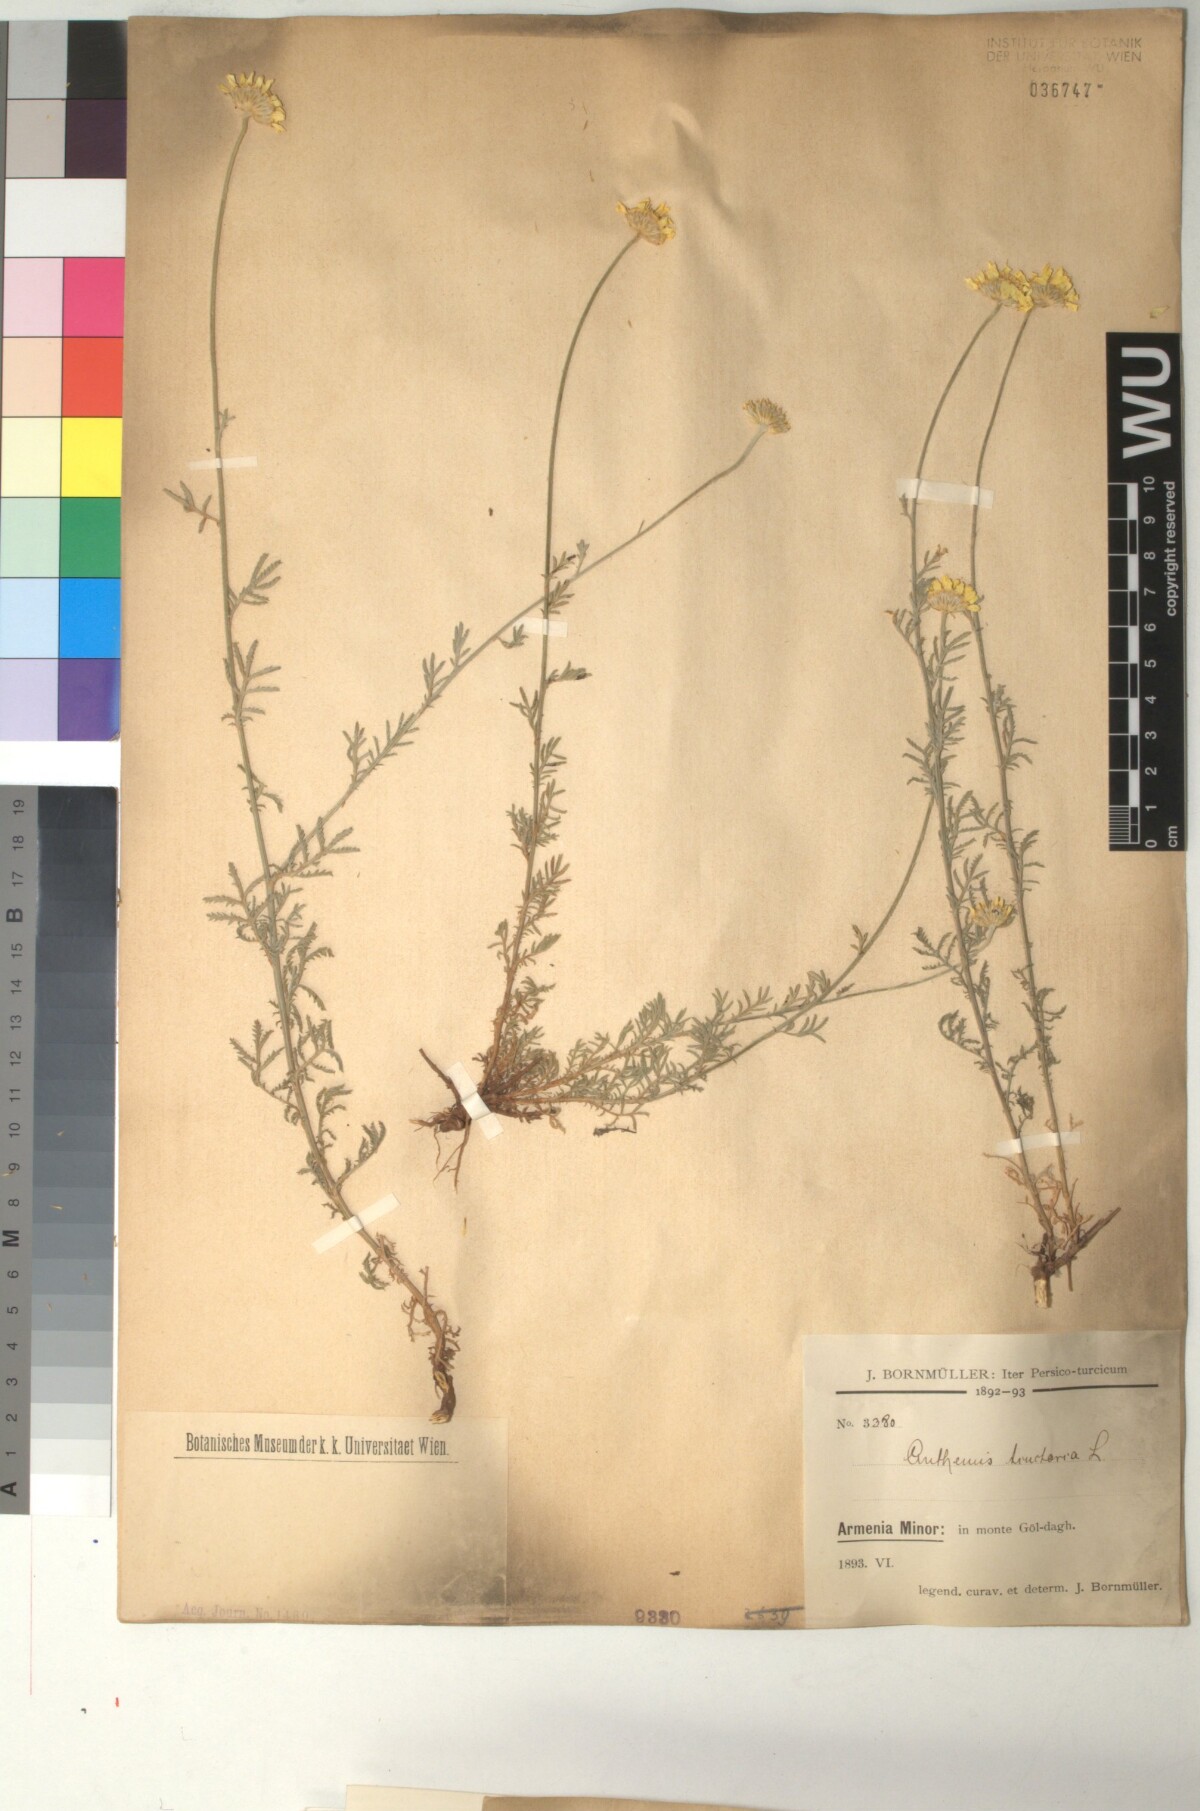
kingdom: Plantae
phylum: Tracheophyta
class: Magnoliopsida
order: Asterales
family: Asteraceae
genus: Cota
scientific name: Cota tinctoria
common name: Golden chamomile
